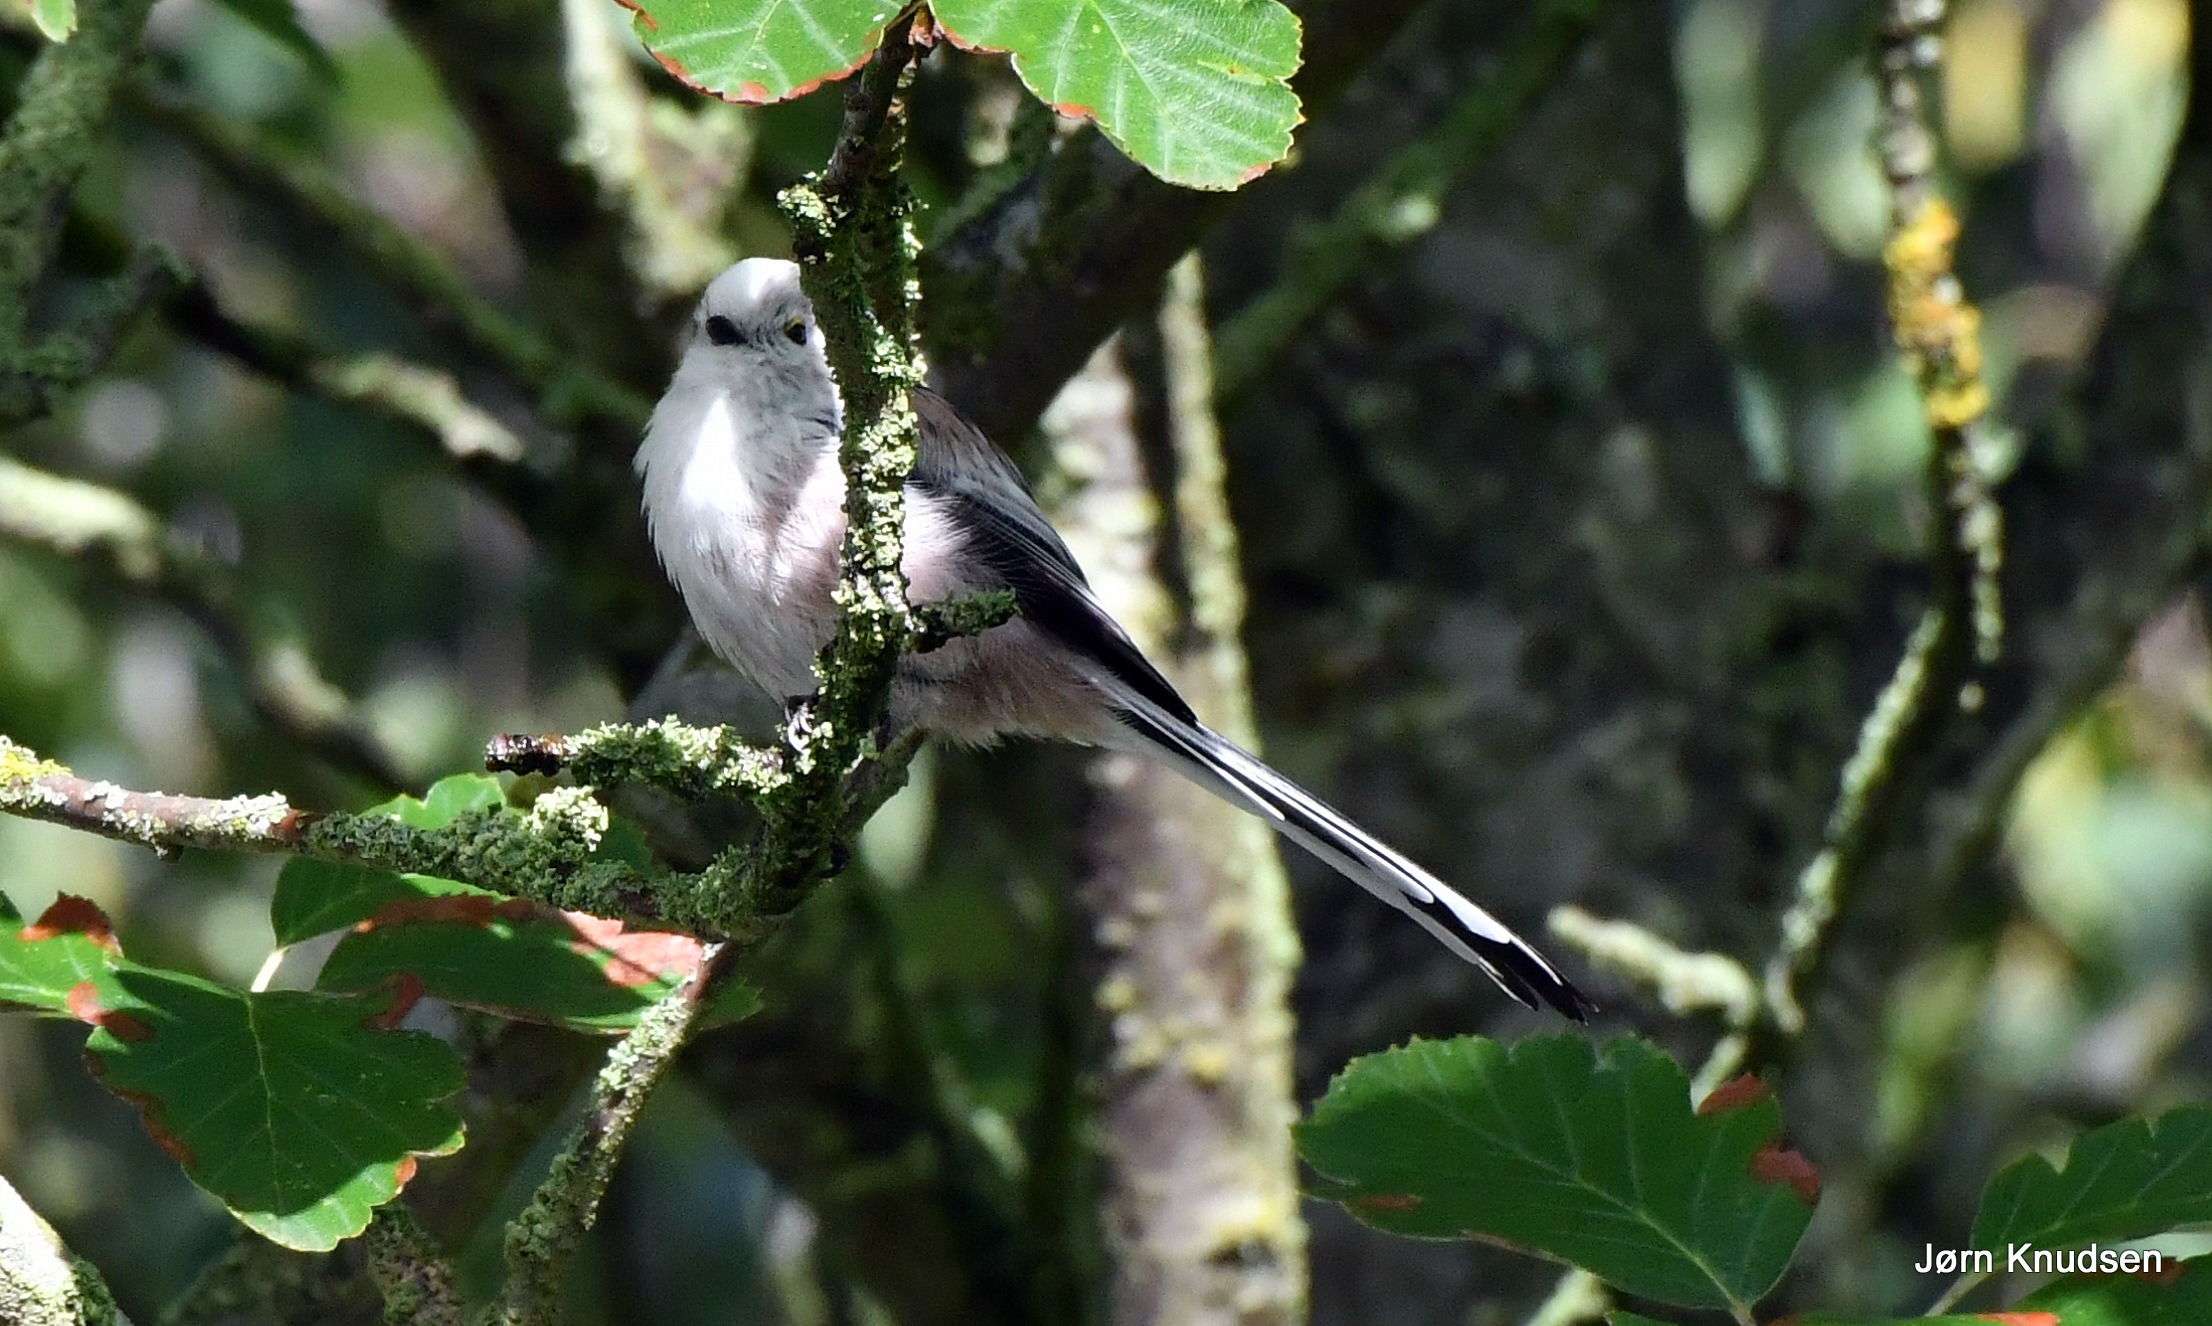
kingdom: Animalia
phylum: Chordata
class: Aves
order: Passeriformes
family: Aegithalidae
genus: Aegithalos
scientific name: Aegithalos caudatus
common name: Halemejse
